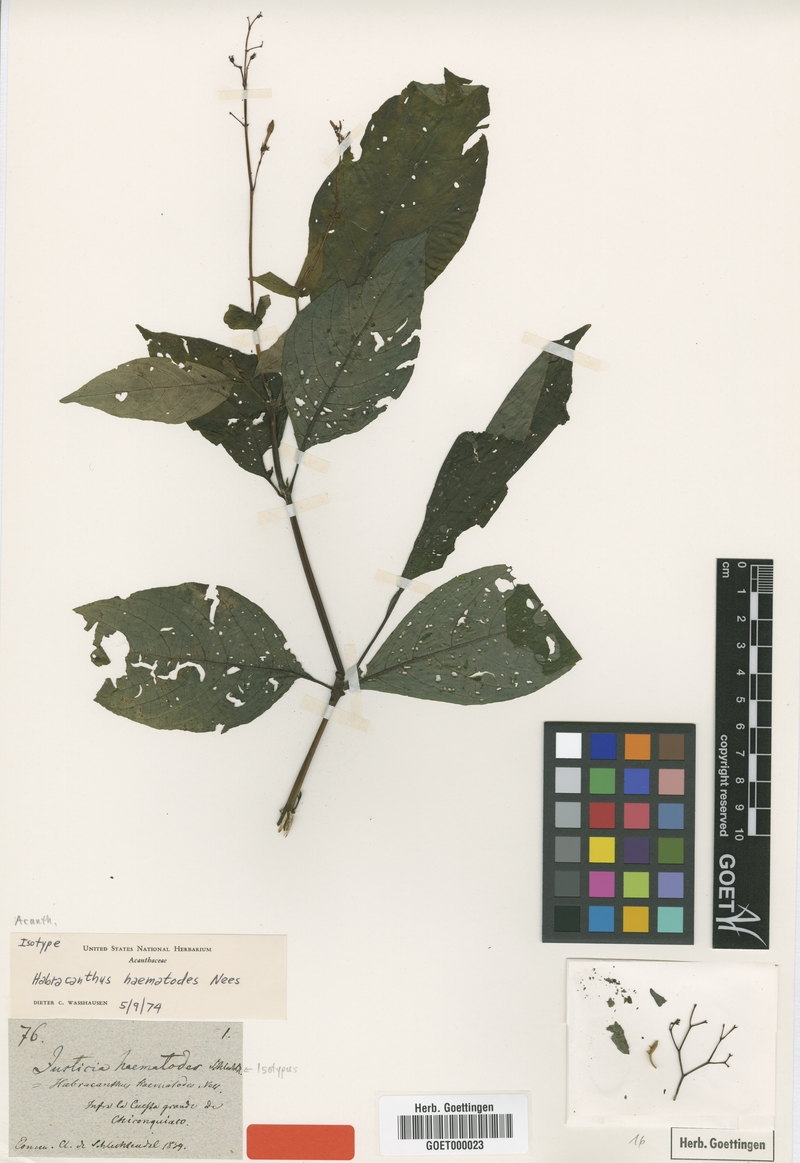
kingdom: Plantae
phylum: Tracheophyta
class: Magnoliopsida
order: Lamiales
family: Acanthaceae
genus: Stenostephanus
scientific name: Stenostephanus haematodes
